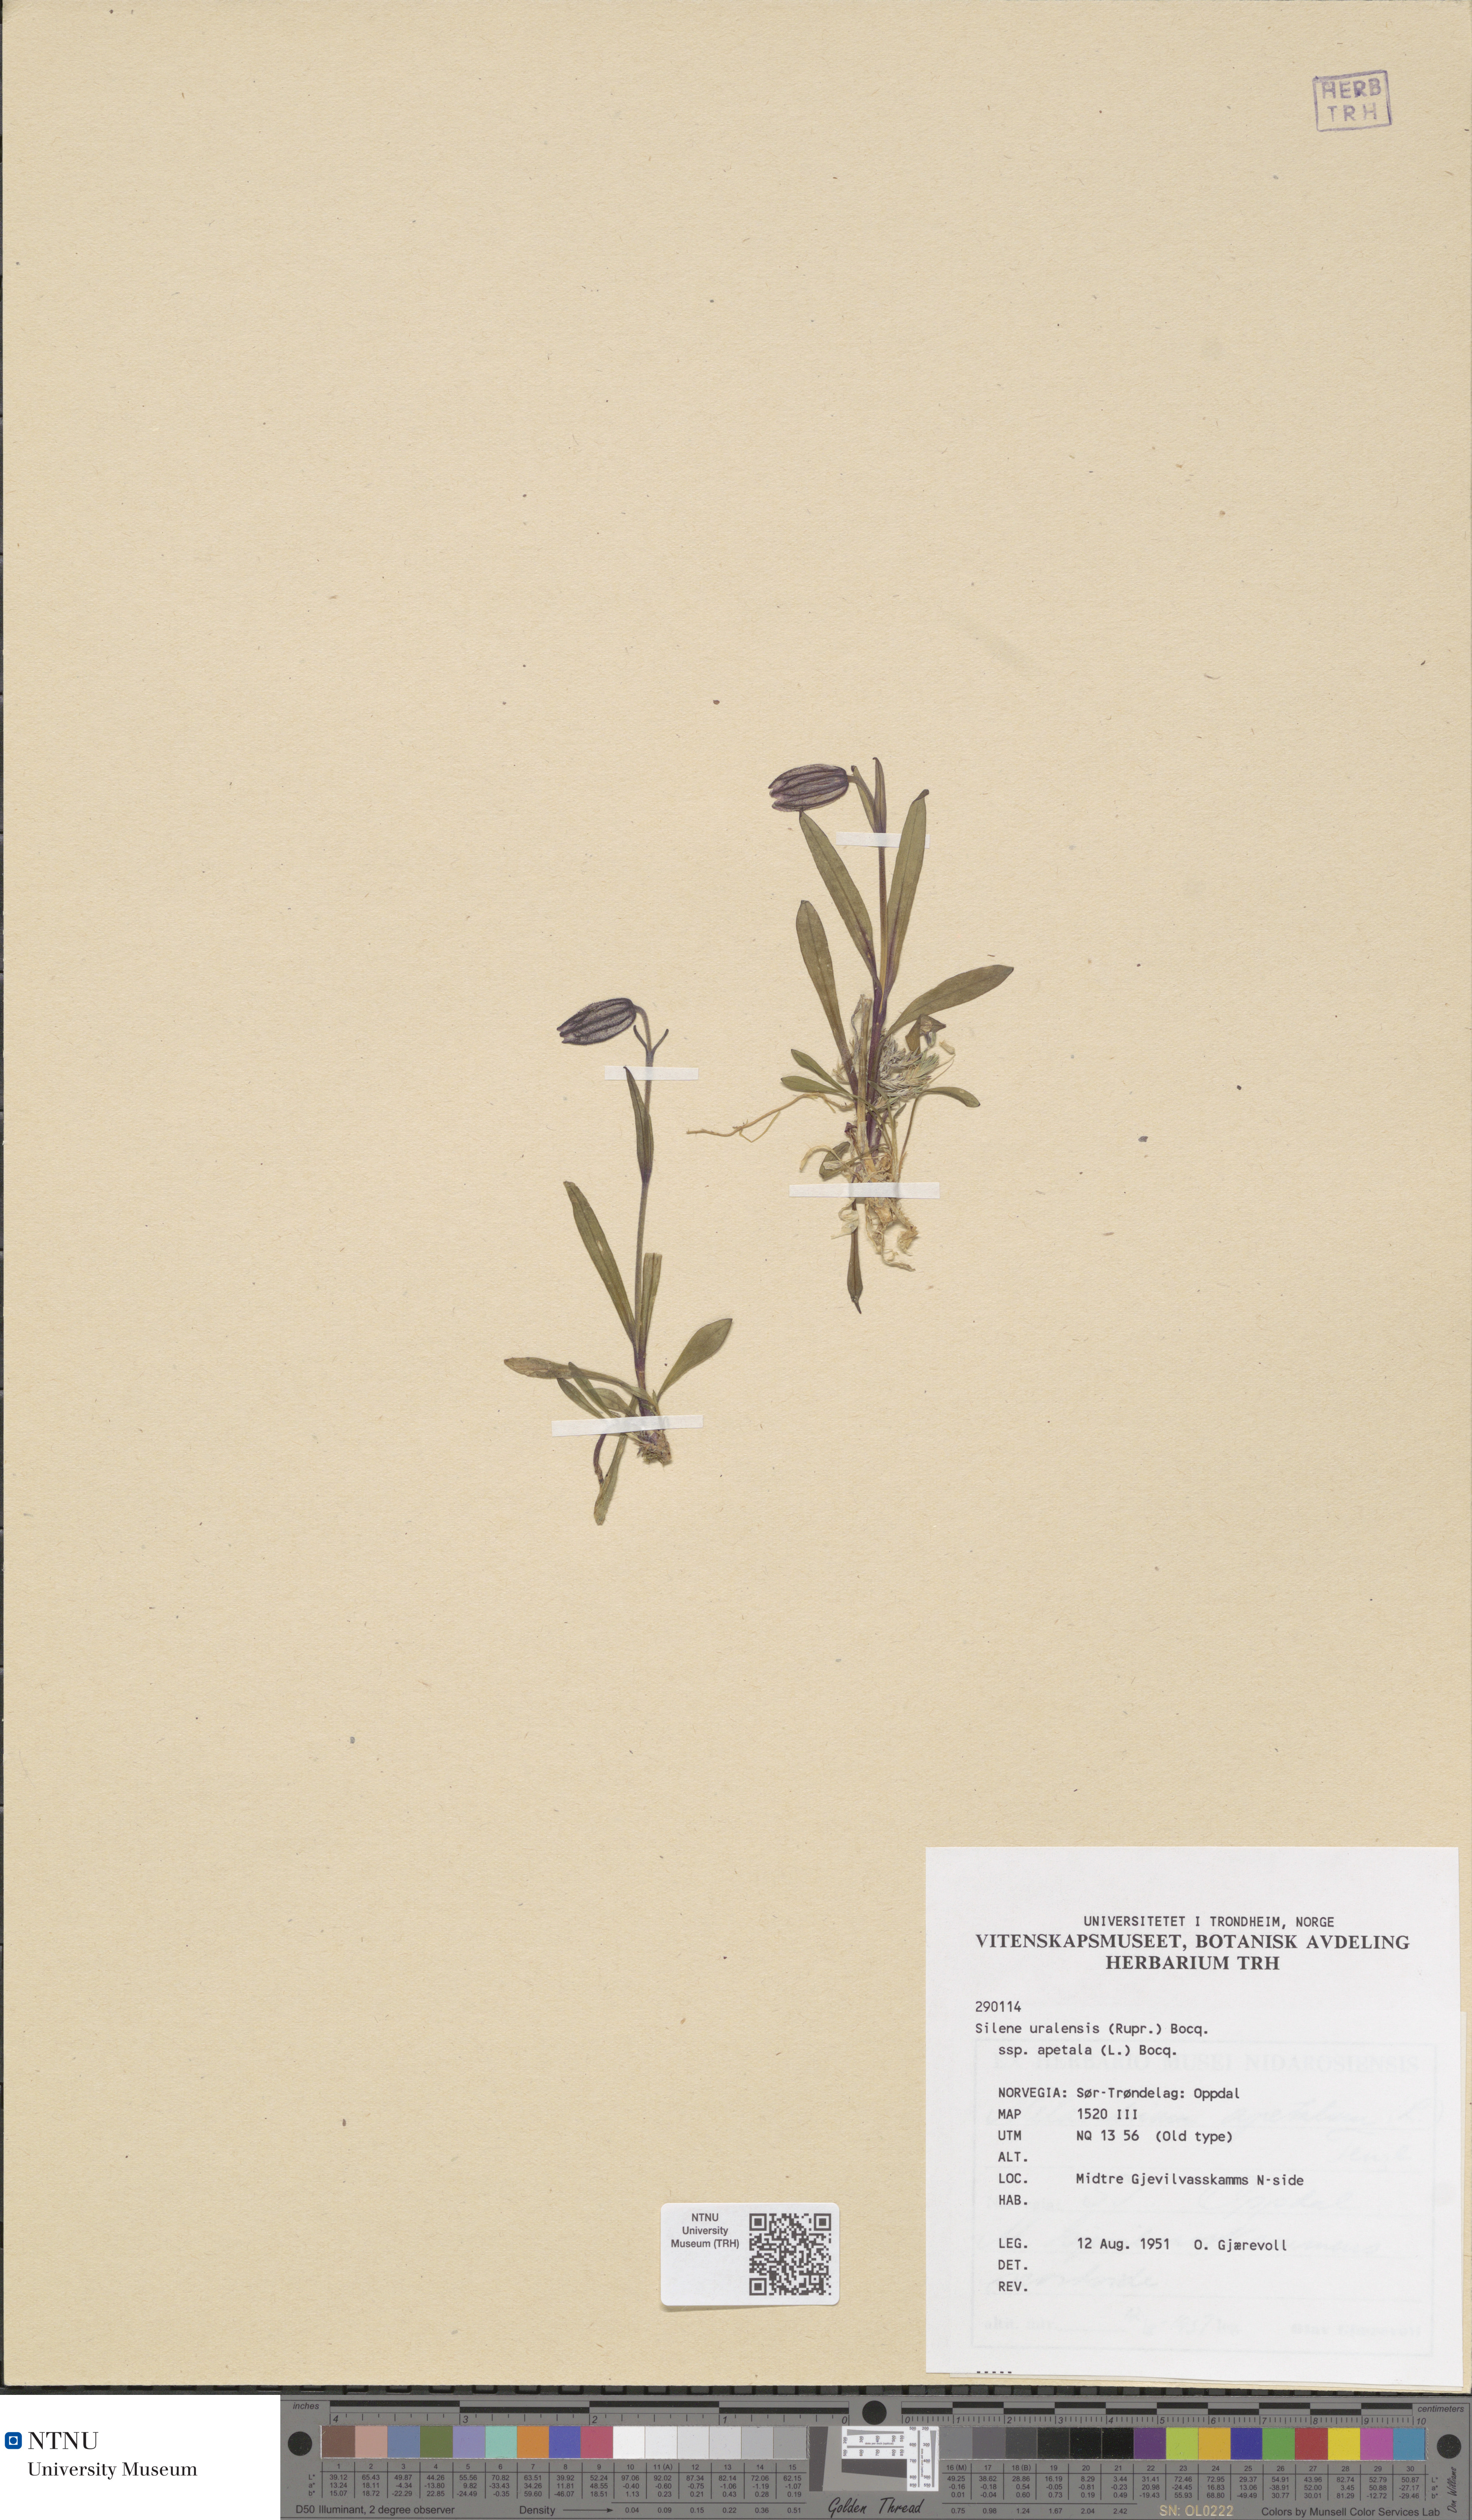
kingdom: Plantae
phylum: Tracheophyta
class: Magnoliopsida
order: Caryophyllales
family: Caryophyllaceae
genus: Silene
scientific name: Silene wahlbergella
